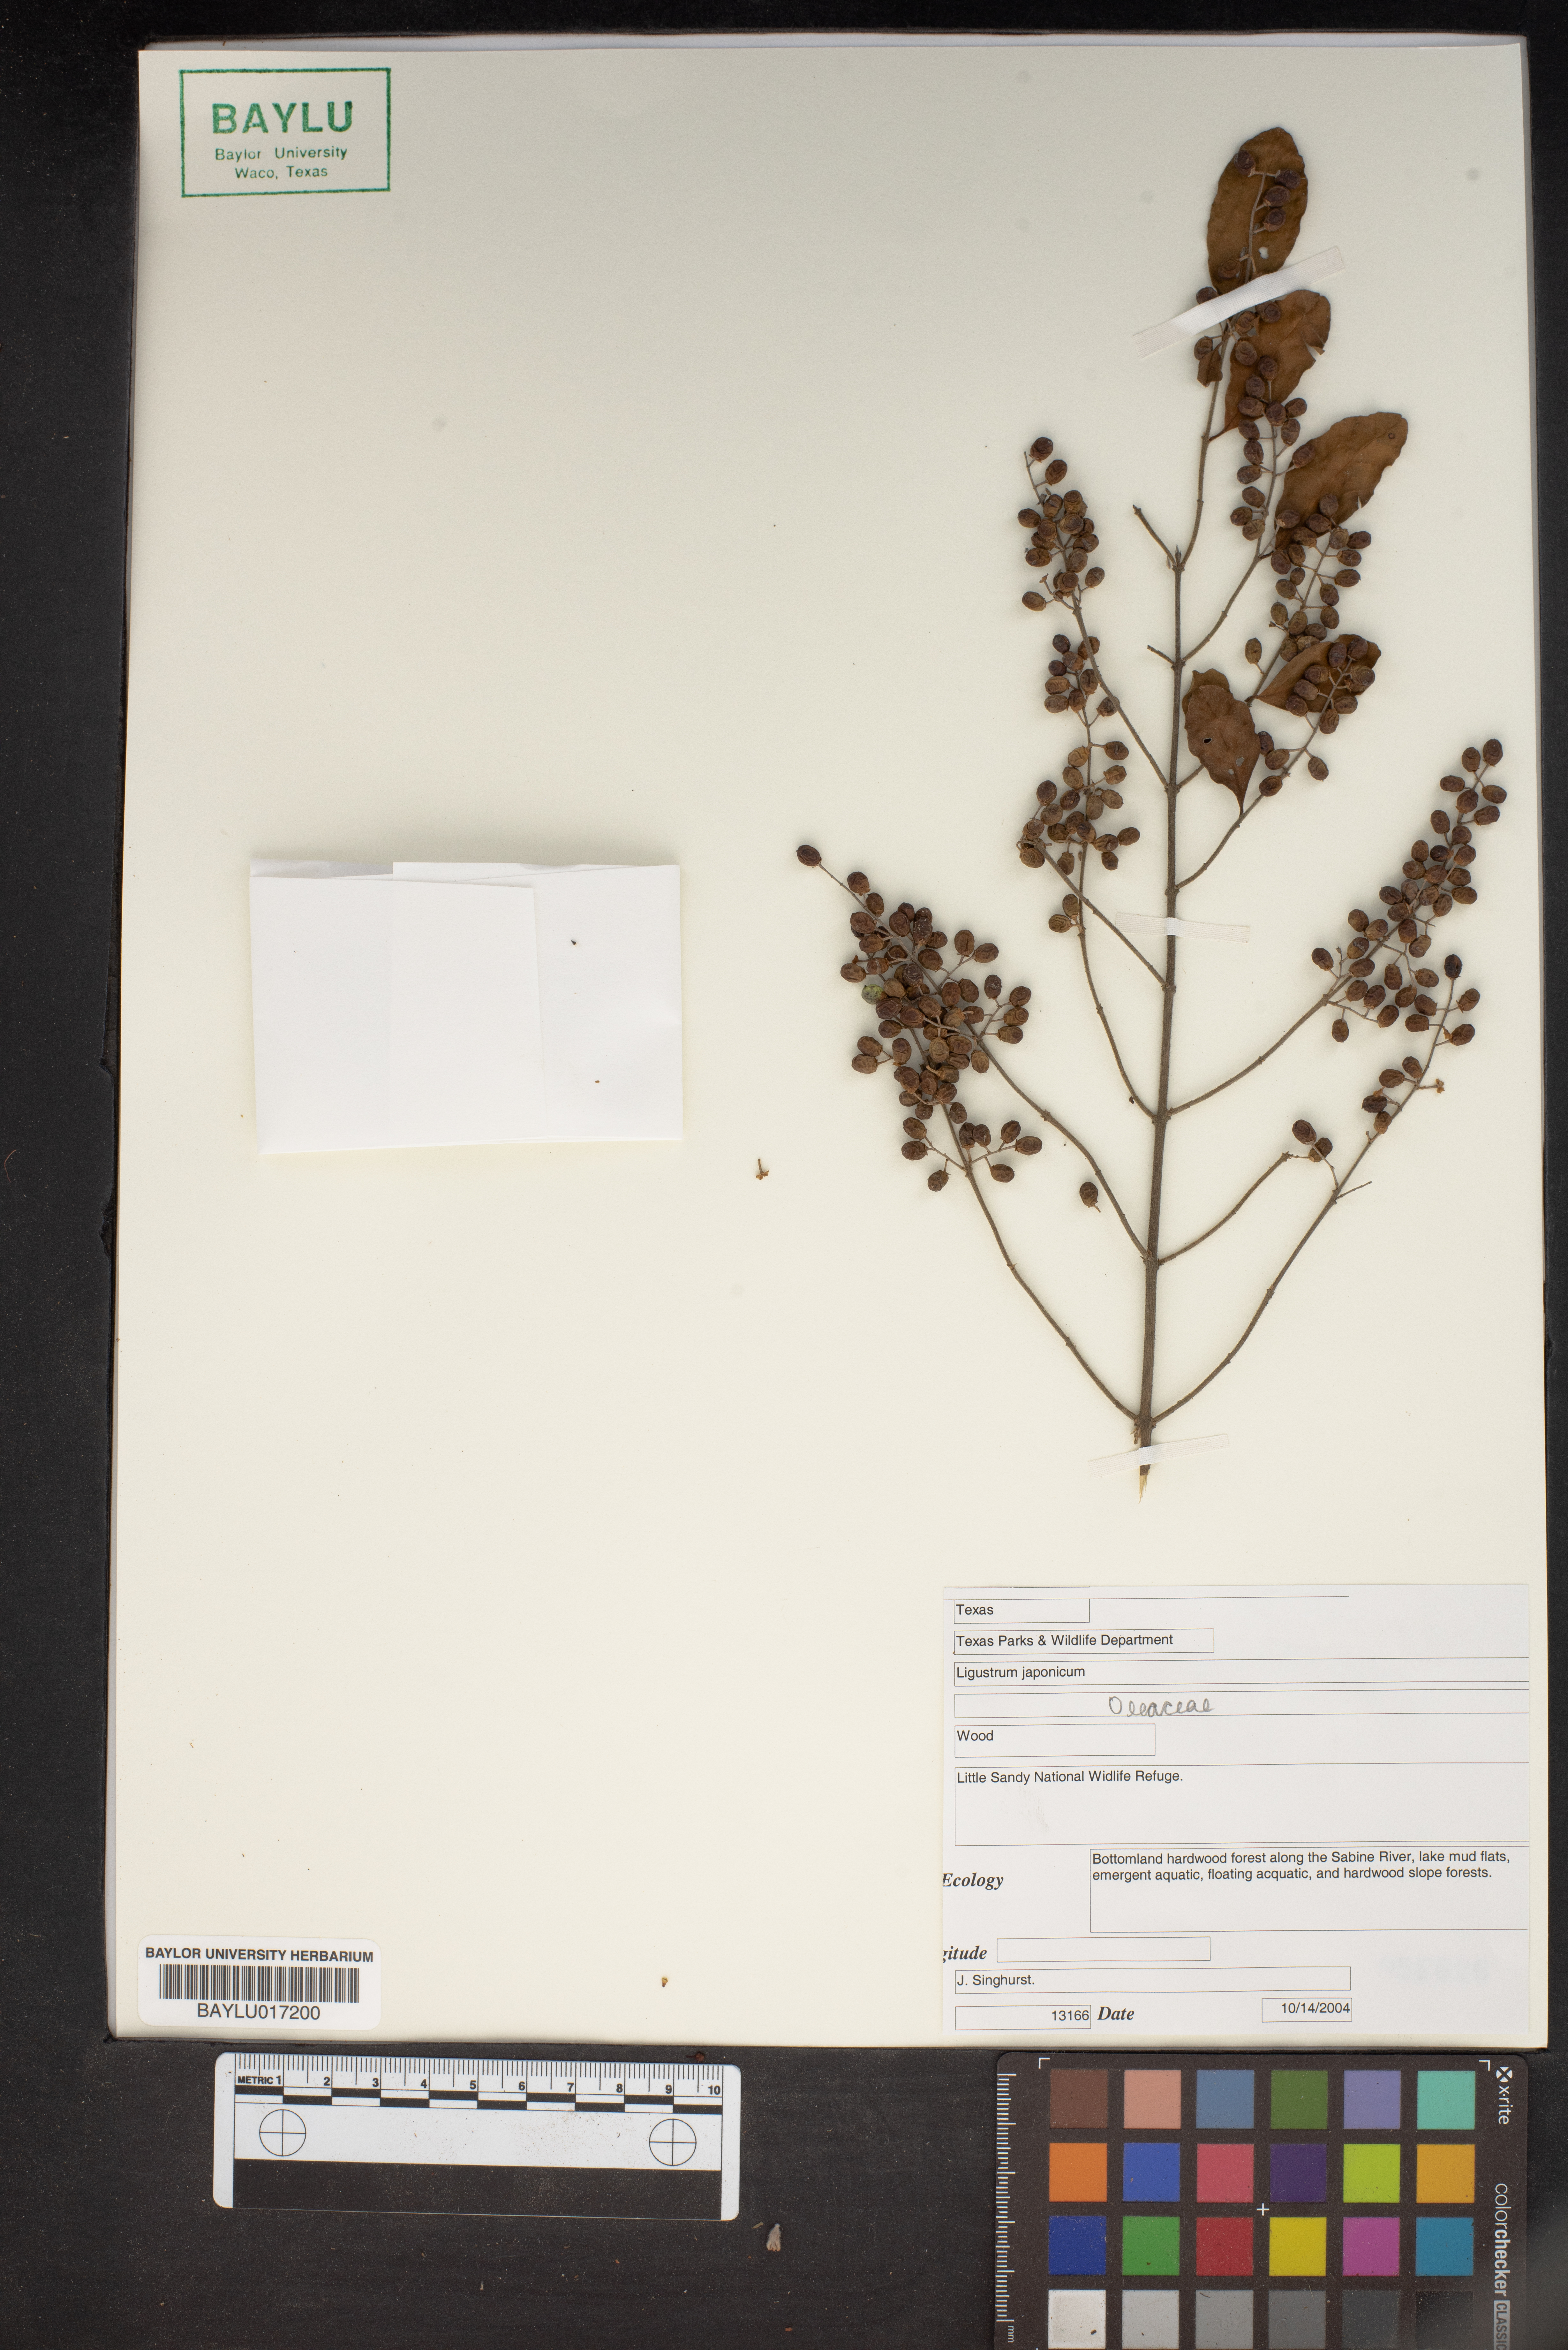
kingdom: Plantae
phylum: Tracheophyta
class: Magnoliopsida
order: Lamiales
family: Oleaceae
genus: Ligustrum
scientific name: Ligustrum japonicum
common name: Japanese privet
